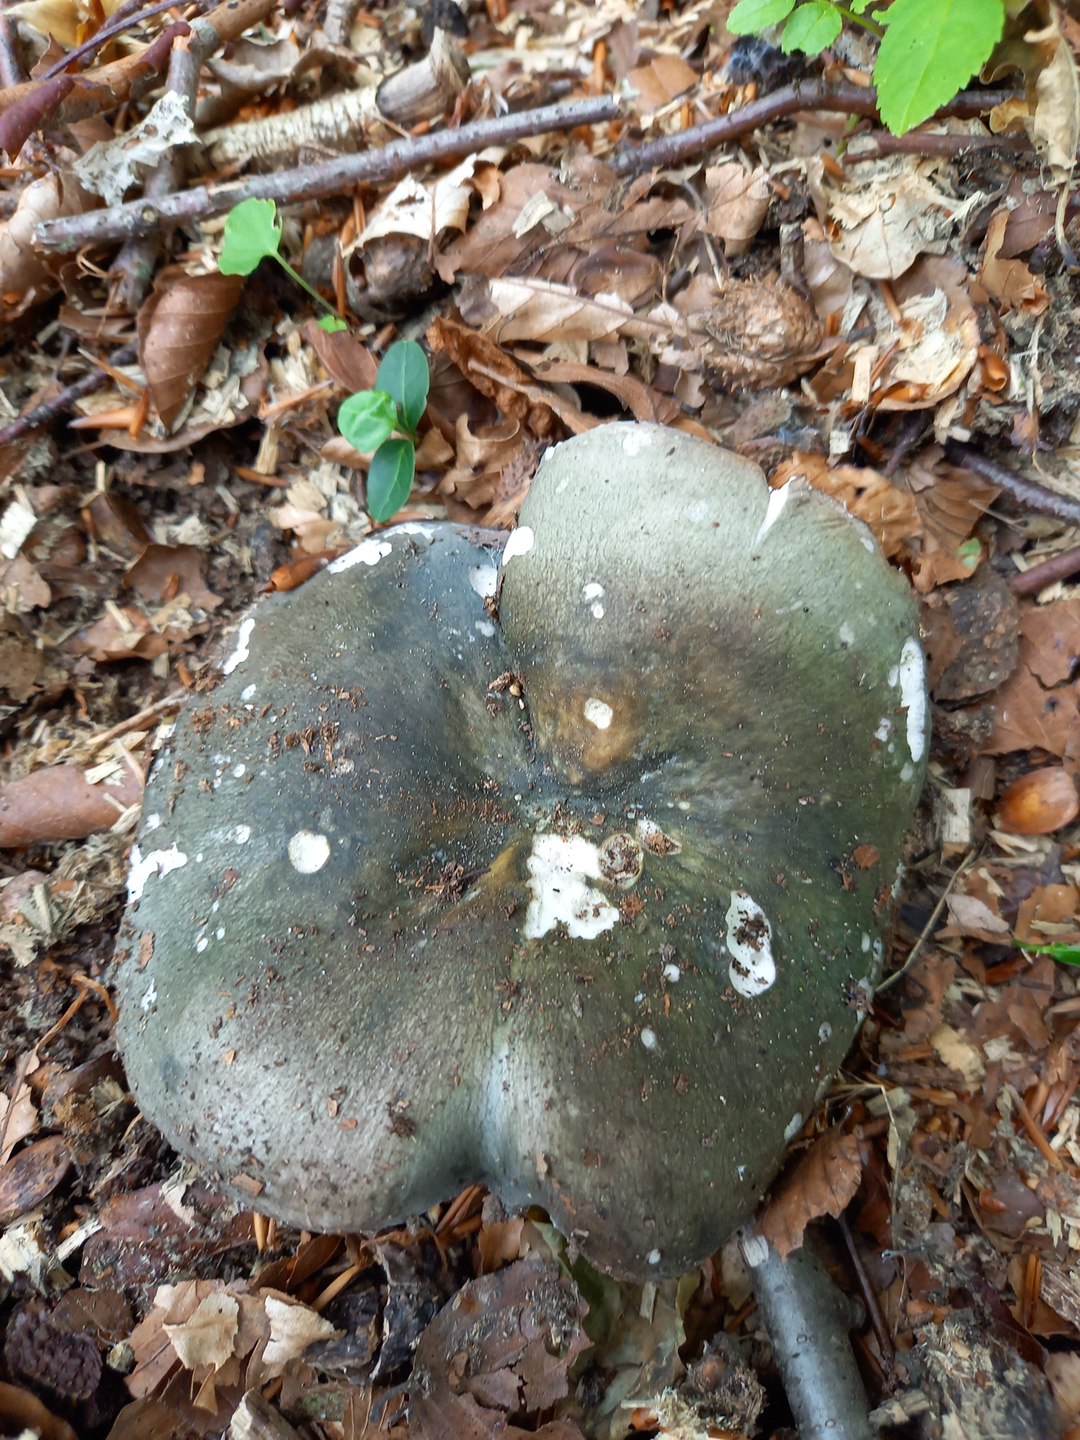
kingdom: Fungi
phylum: Basidiomycota
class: Agaricomycetes
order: Russulales
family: Russulaceae
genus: Russula
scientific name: Russula cyanoxantha
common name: broget skørhat
